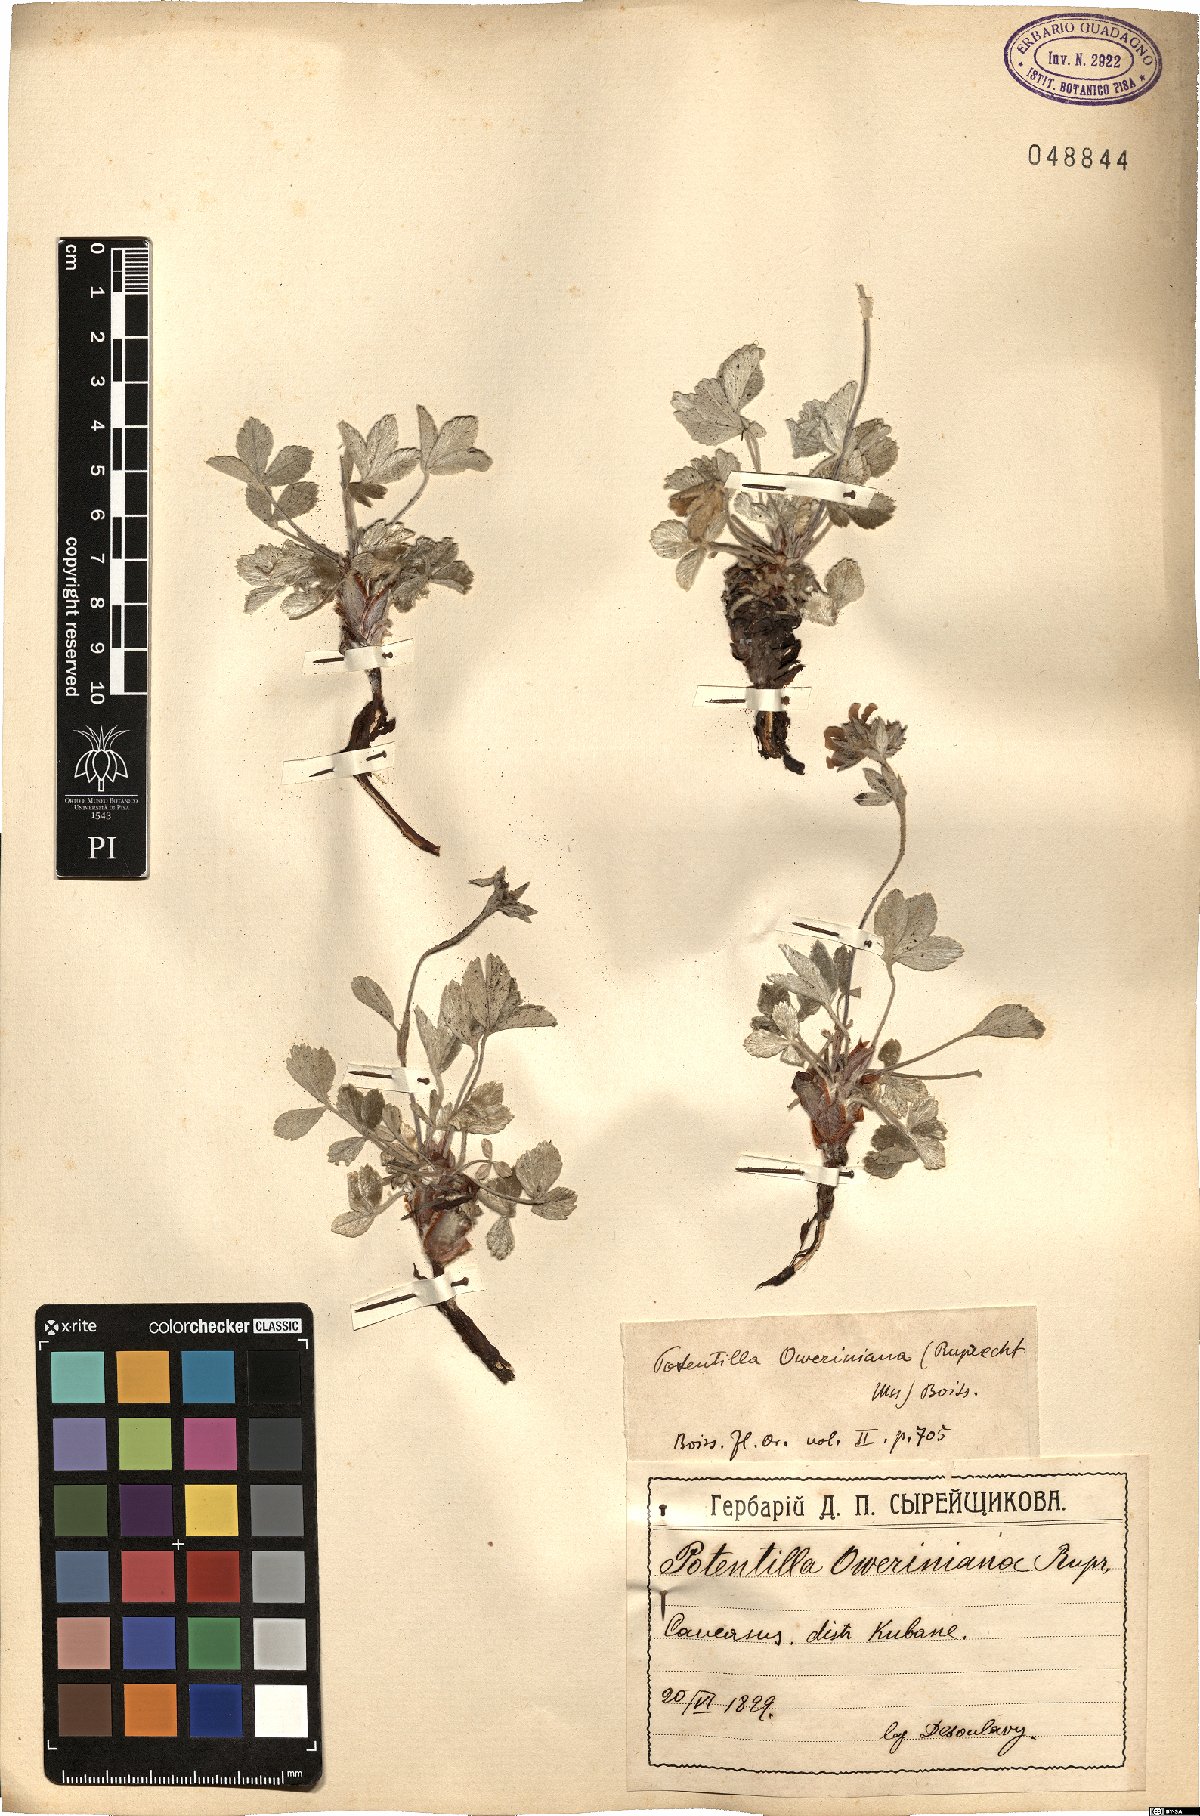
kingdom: Plantae
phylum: Tracheophyta
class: Magnoliopsida
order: Rosales
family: Rosaceae
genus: Potentilla
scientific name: Potentilla oweriniana
